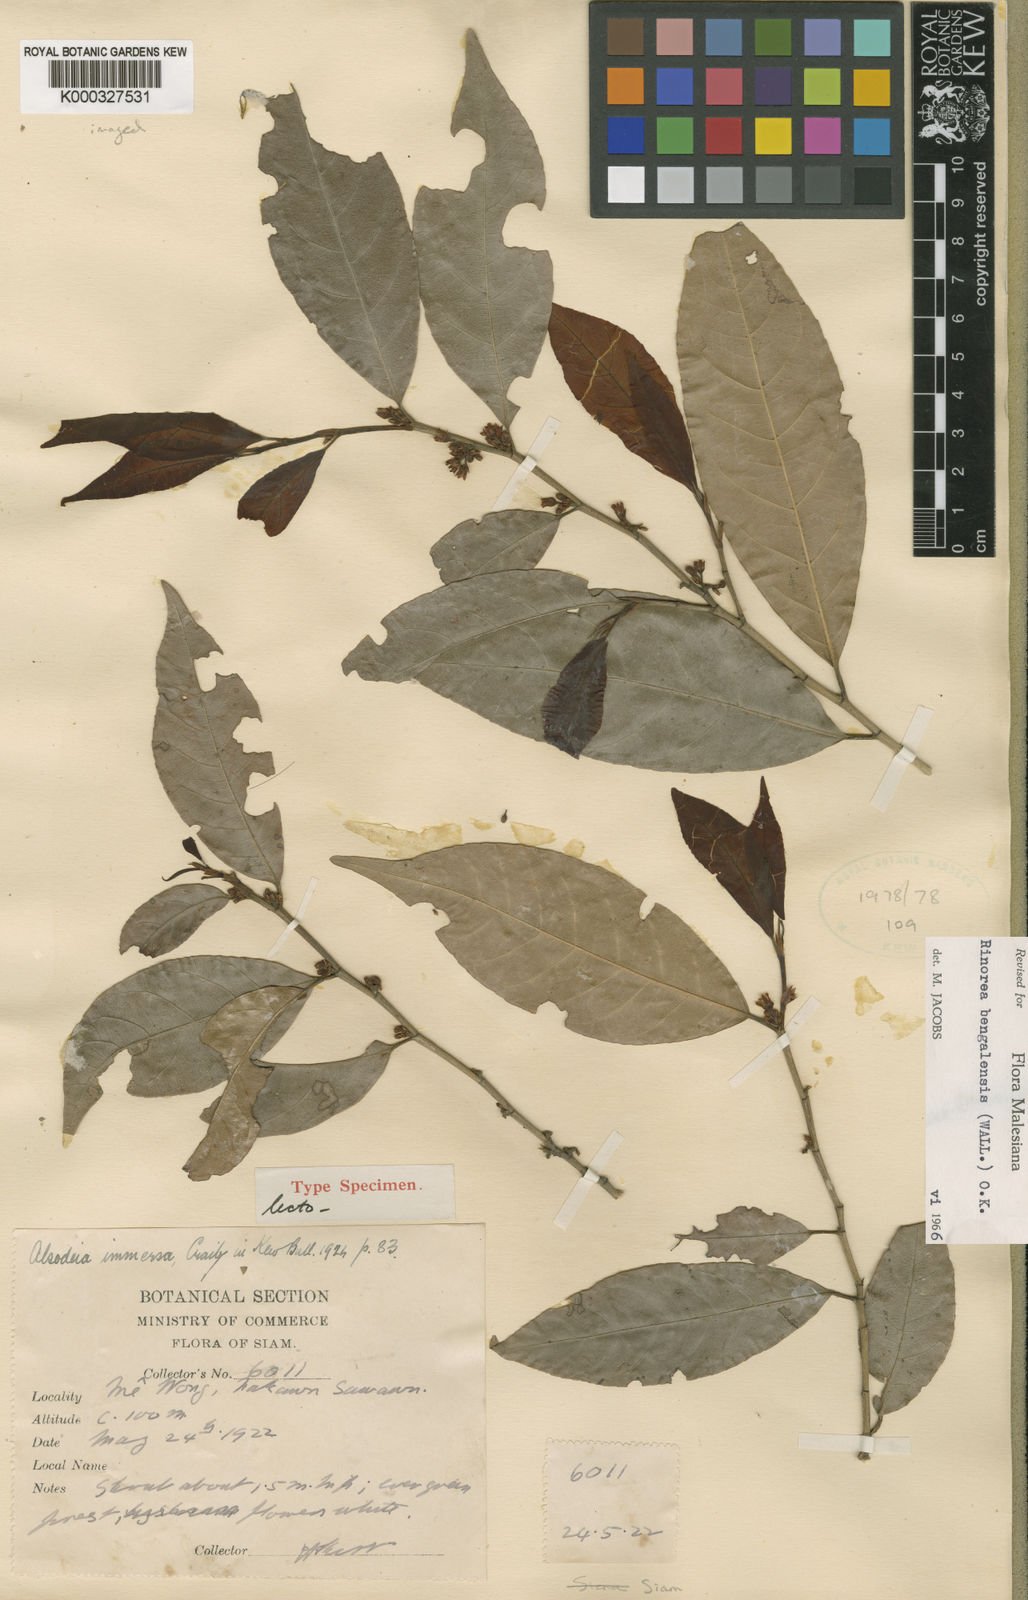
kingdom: Plantae
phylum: Tracheophyta
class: Magnoliopsida
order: Malpighiales
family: Violaceae
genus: Rinorea
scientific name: Rinorea bengalensis
